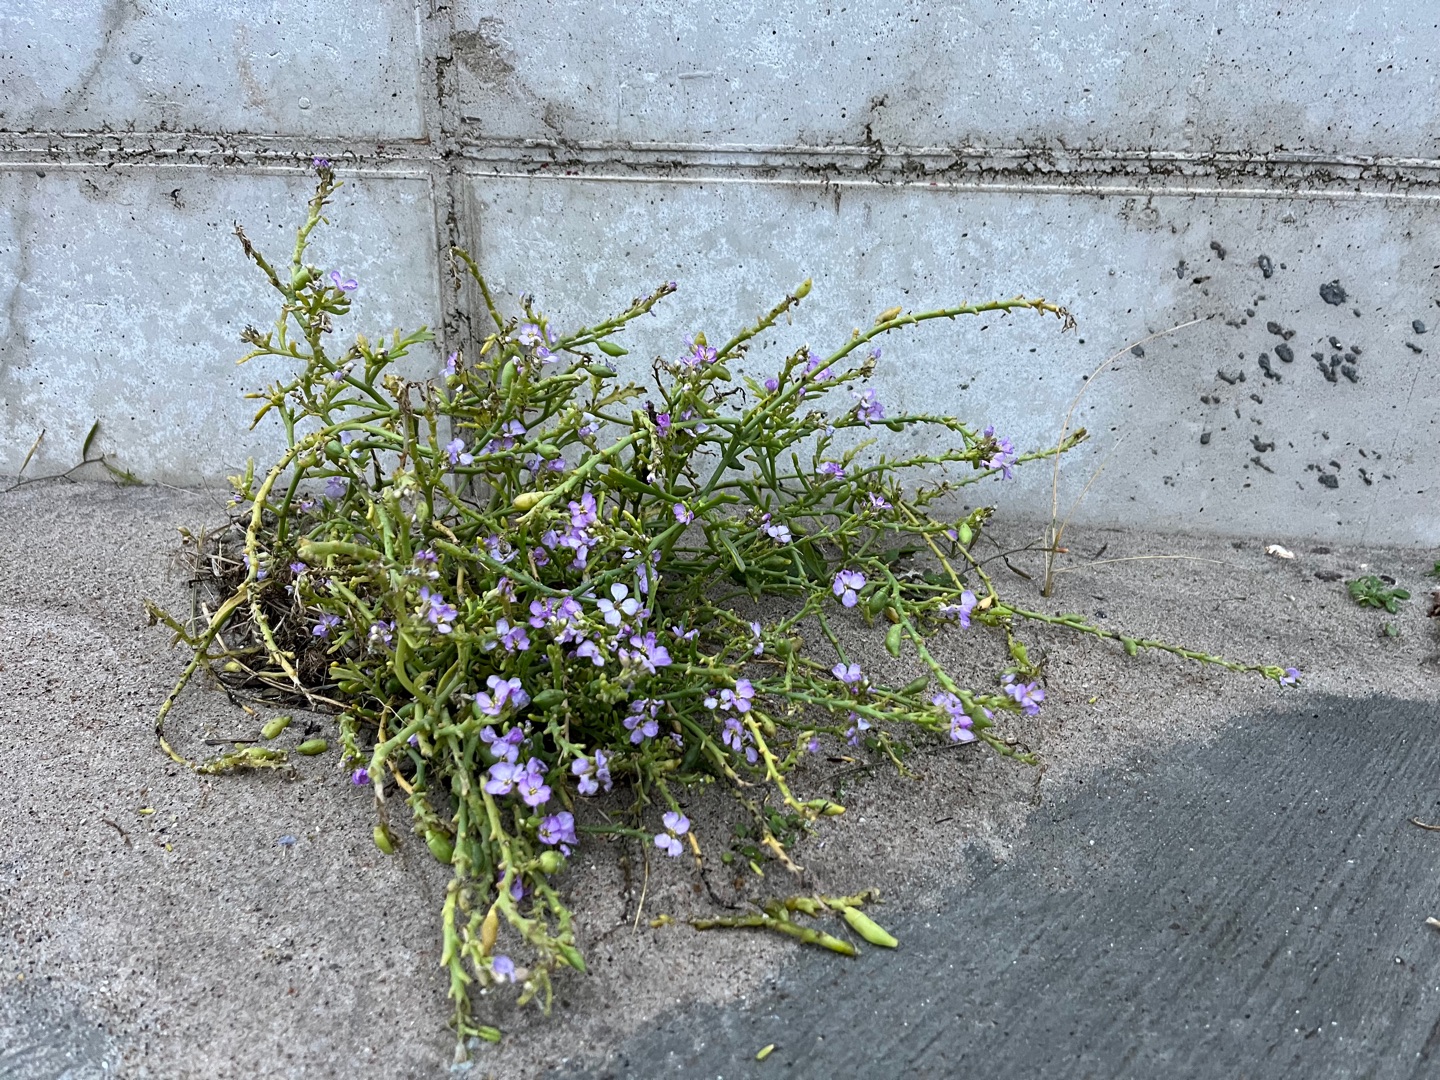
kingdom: Plantae
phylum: Tracheophyta
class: Magnoliopsida
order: Brassicales
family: Brassicaceae
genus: Cakile
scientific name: Cakile maritima
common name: Strandsennep
